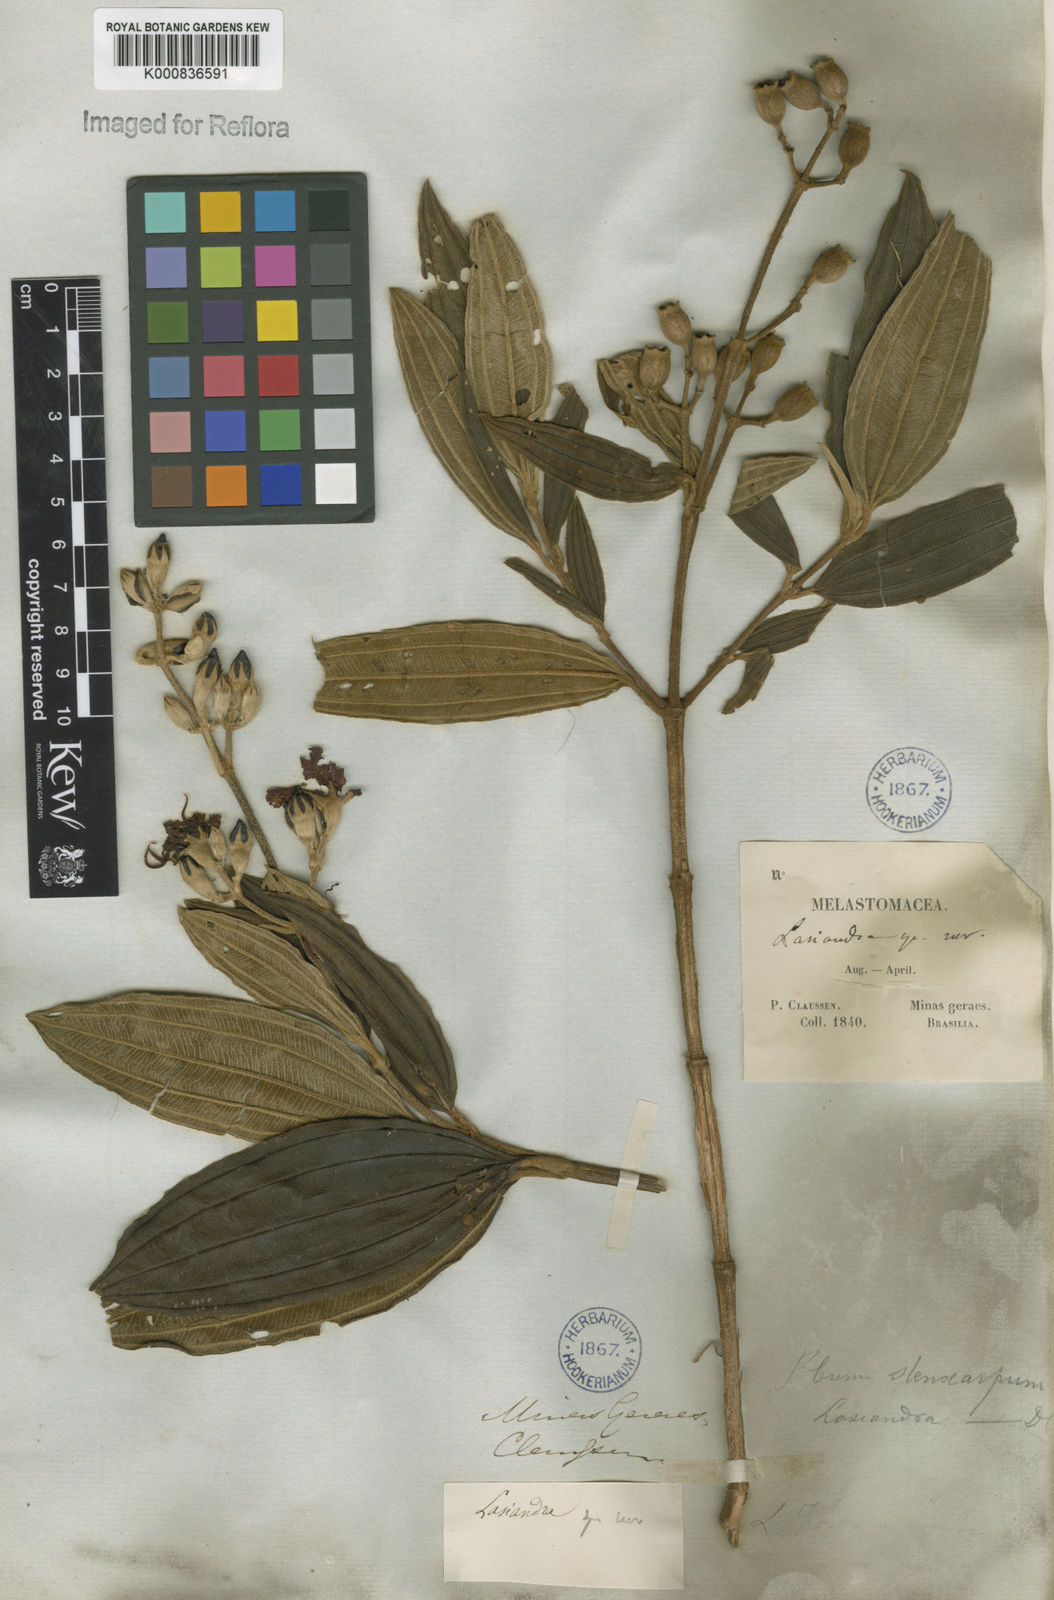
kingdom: Plantae
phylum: Tracheophyta
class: Magnoliopsida
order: Myrtales
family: Melastomataceae
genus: Pleroma
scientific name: Pleroma stenocarpum
